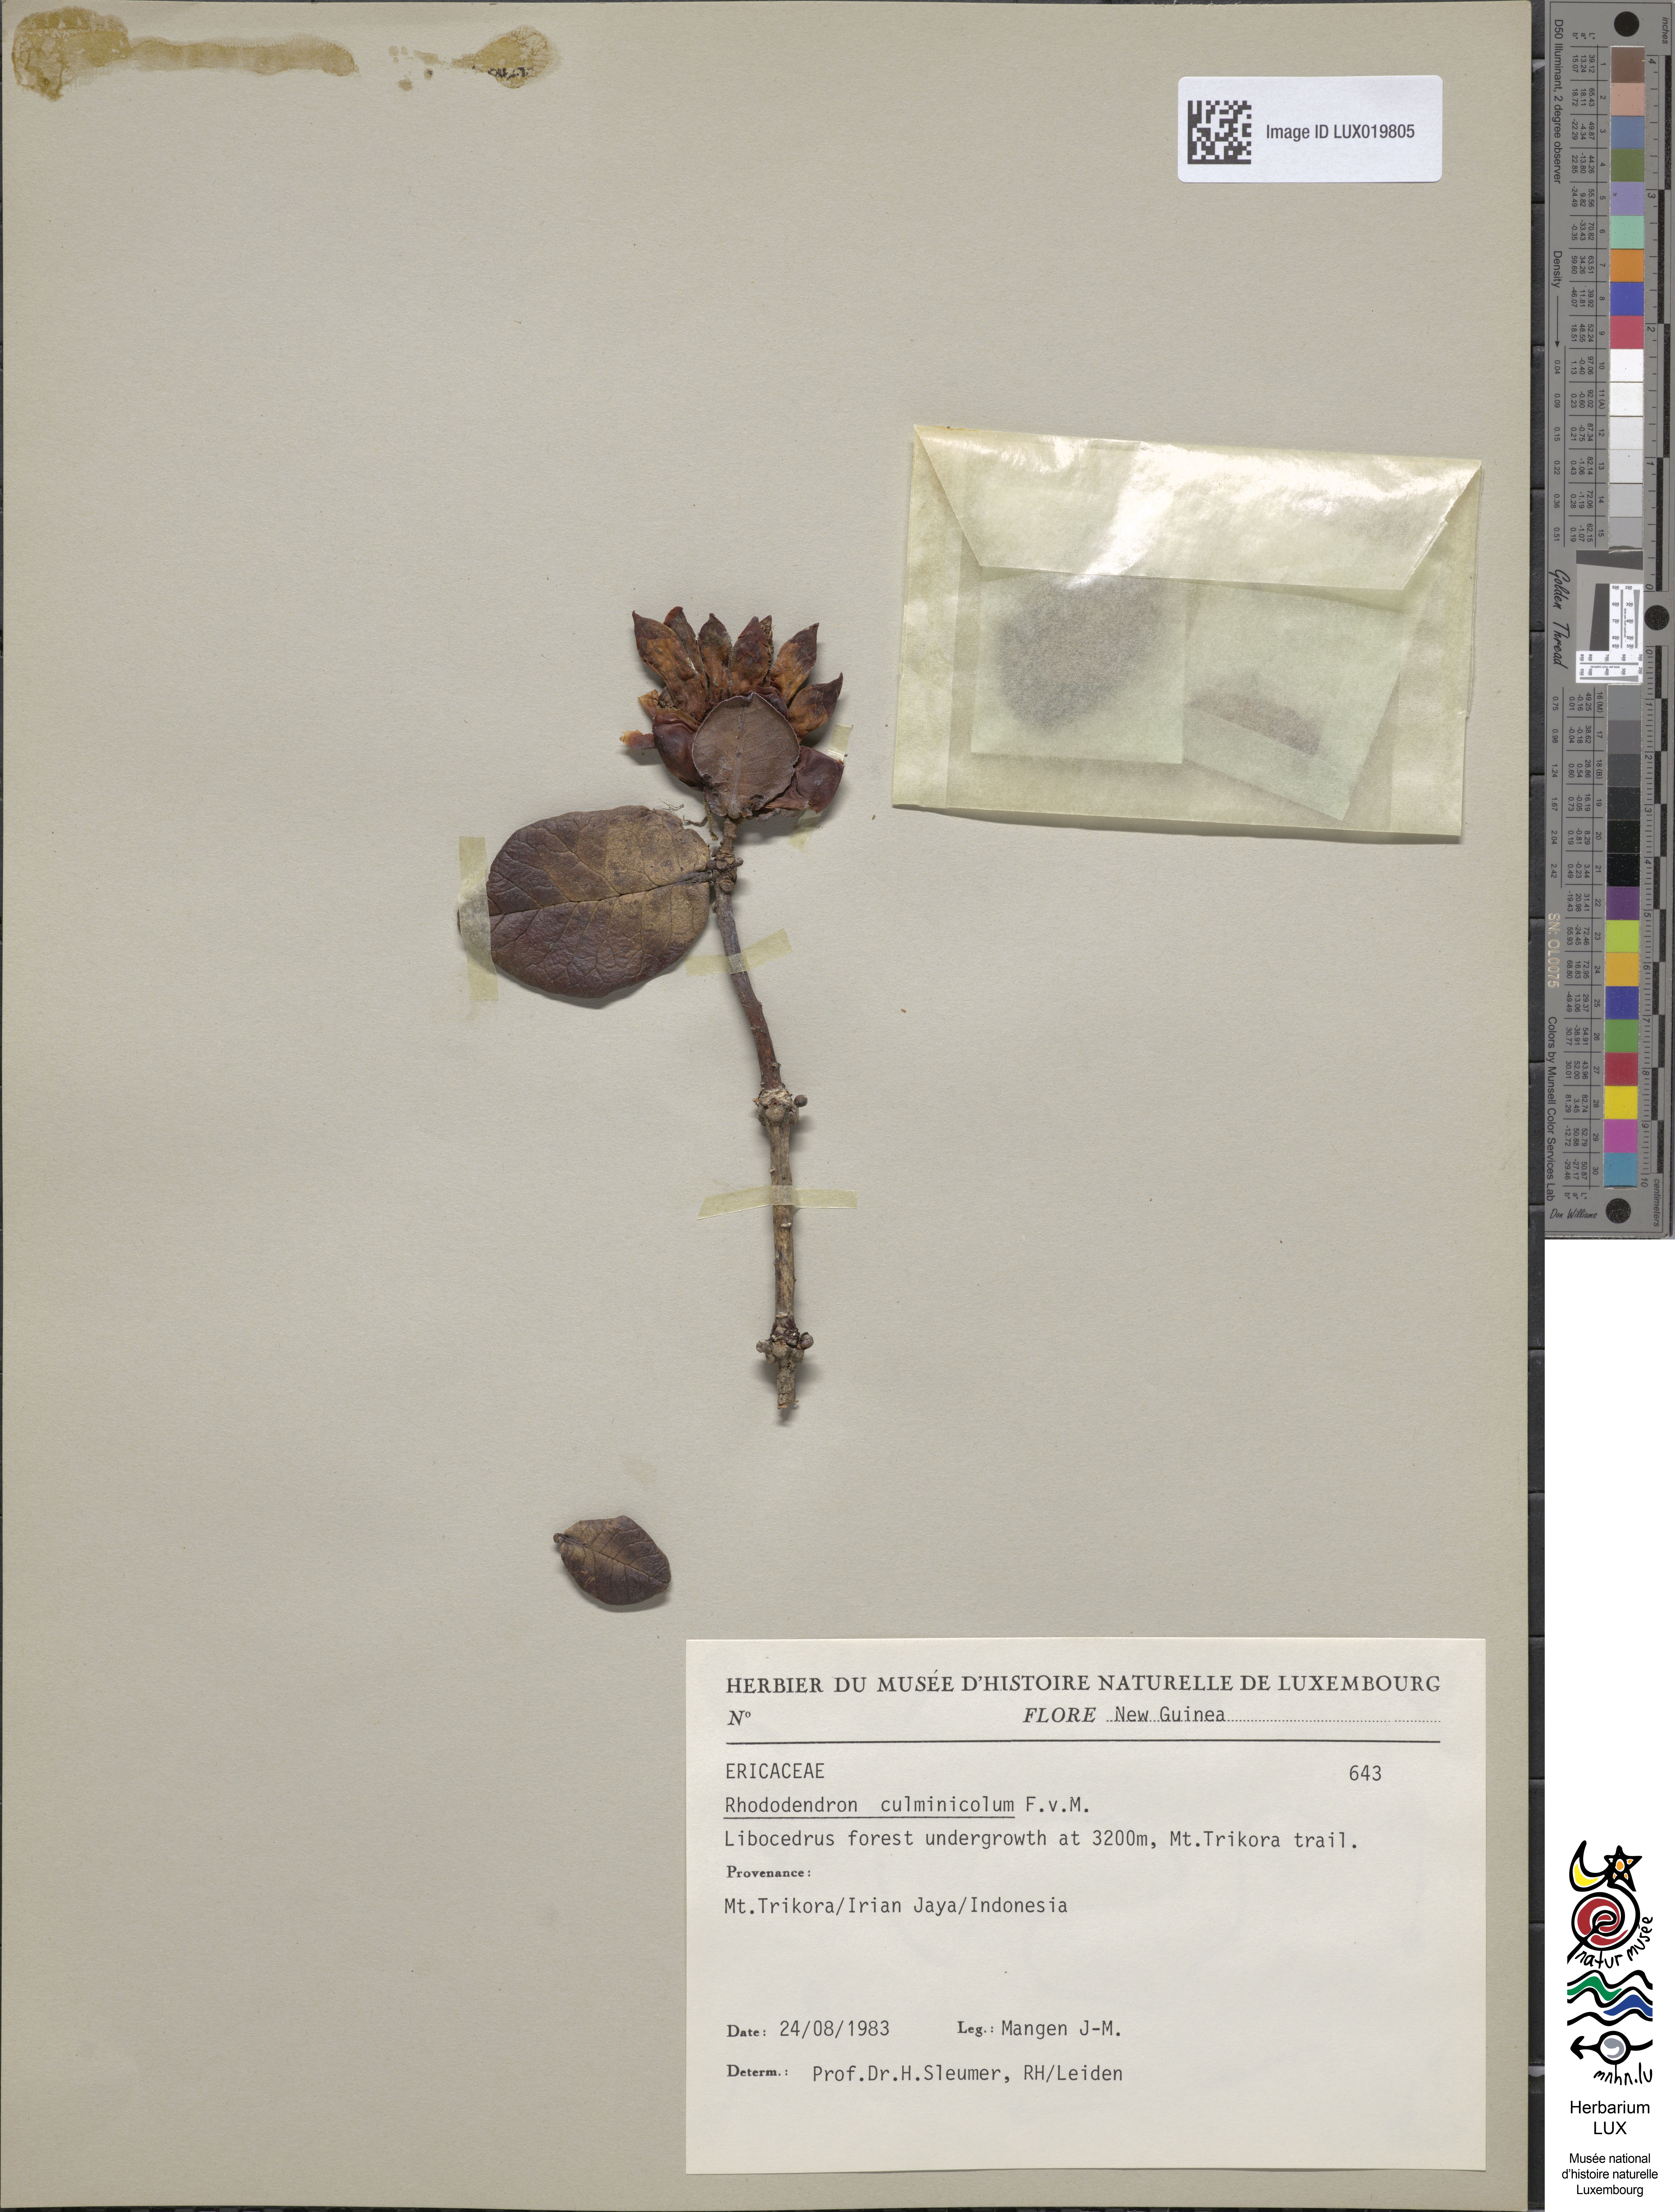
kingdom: Plantae
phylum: Tracheophyta
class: Magnoliopsida
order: Ericales
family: Ericaceae
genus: Rhododendron
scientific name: Rhododendron culminicola
